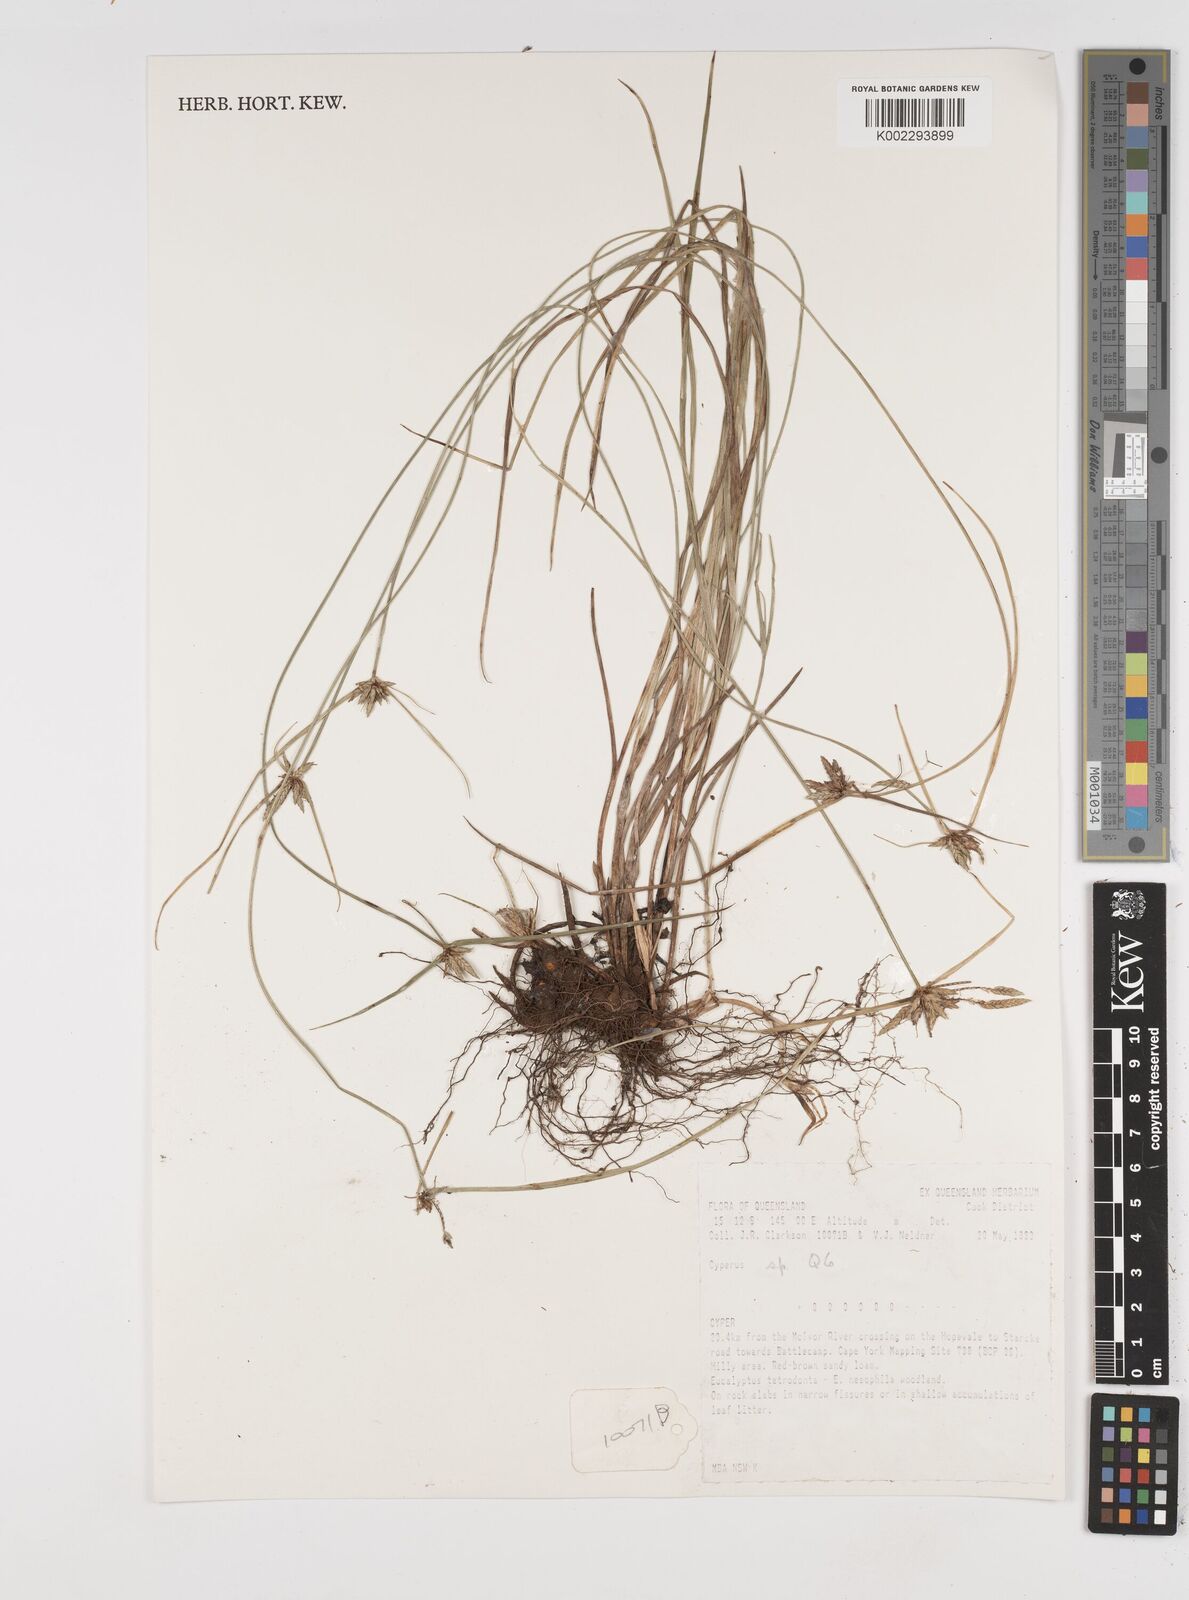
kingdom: Plantae
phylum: Tracheophyta
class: Liliopsida
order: Poales
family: Cyperaceae
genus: Cyperus
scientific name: Cyperus
